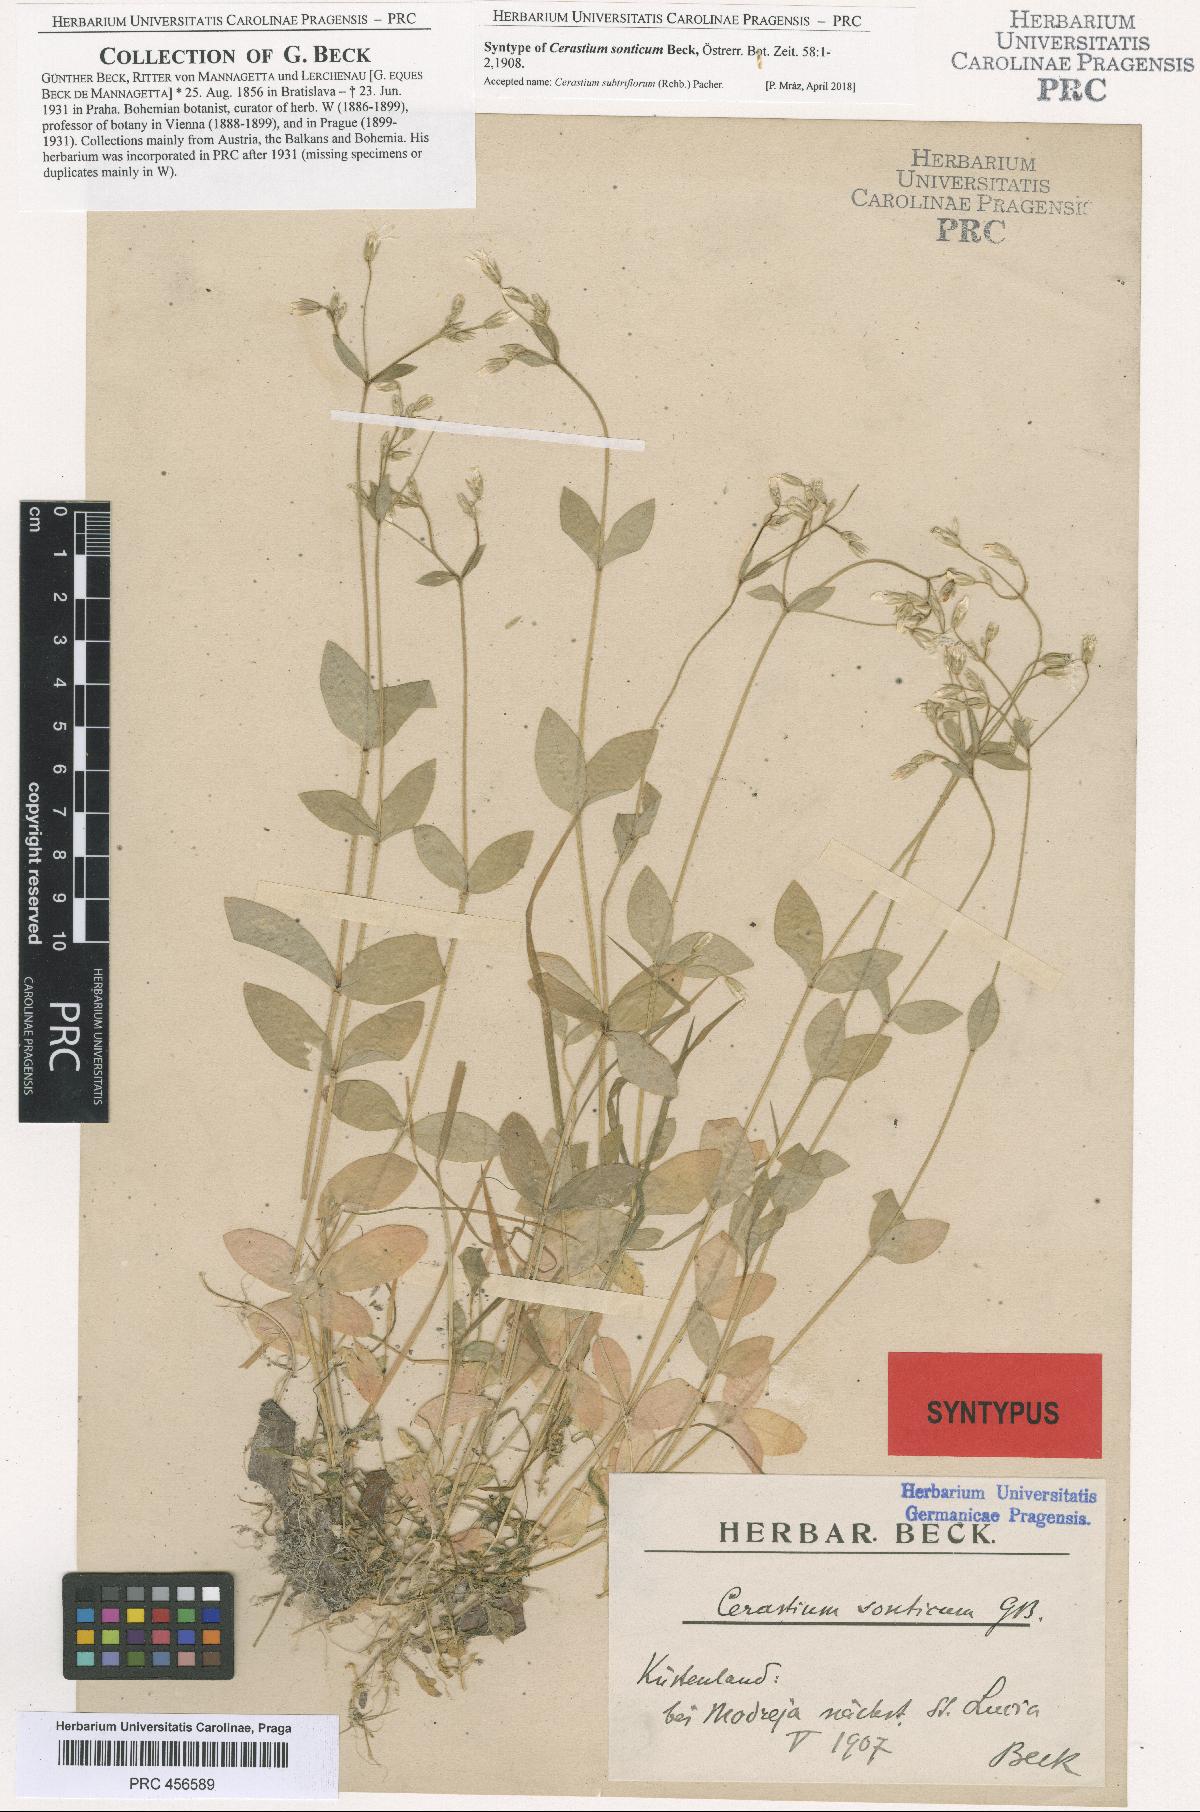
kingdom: Plantae
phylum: Tracheophyta
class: Magnoliopsida
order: Caryophyllales
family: Caryophyllaceae
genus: Cerastium
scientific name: Cerastium subtriflorum
